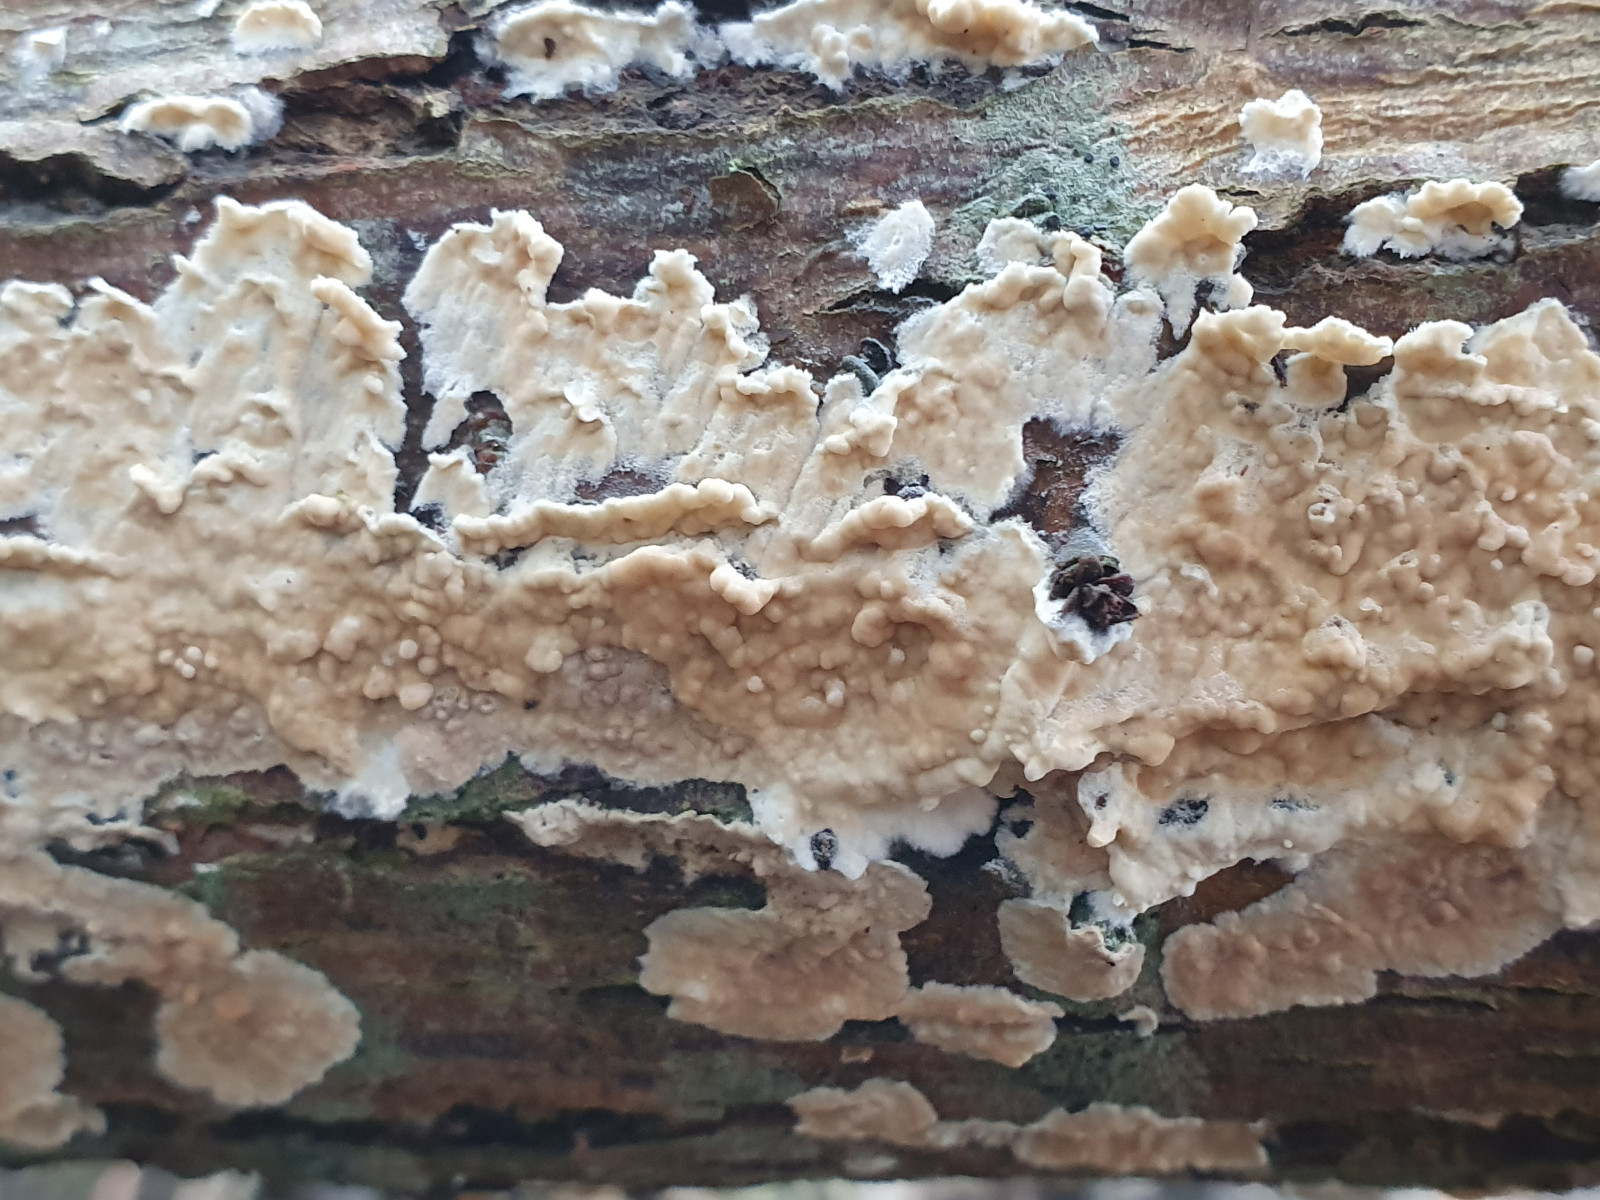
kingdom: Fungi
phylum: Basidiomycota
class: Agaricomycetes
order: Agaricales
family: Physalacriaceae
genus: Cylindrobasidium
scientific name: Cylindrobasidium evolvens
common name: sprækkehinde
